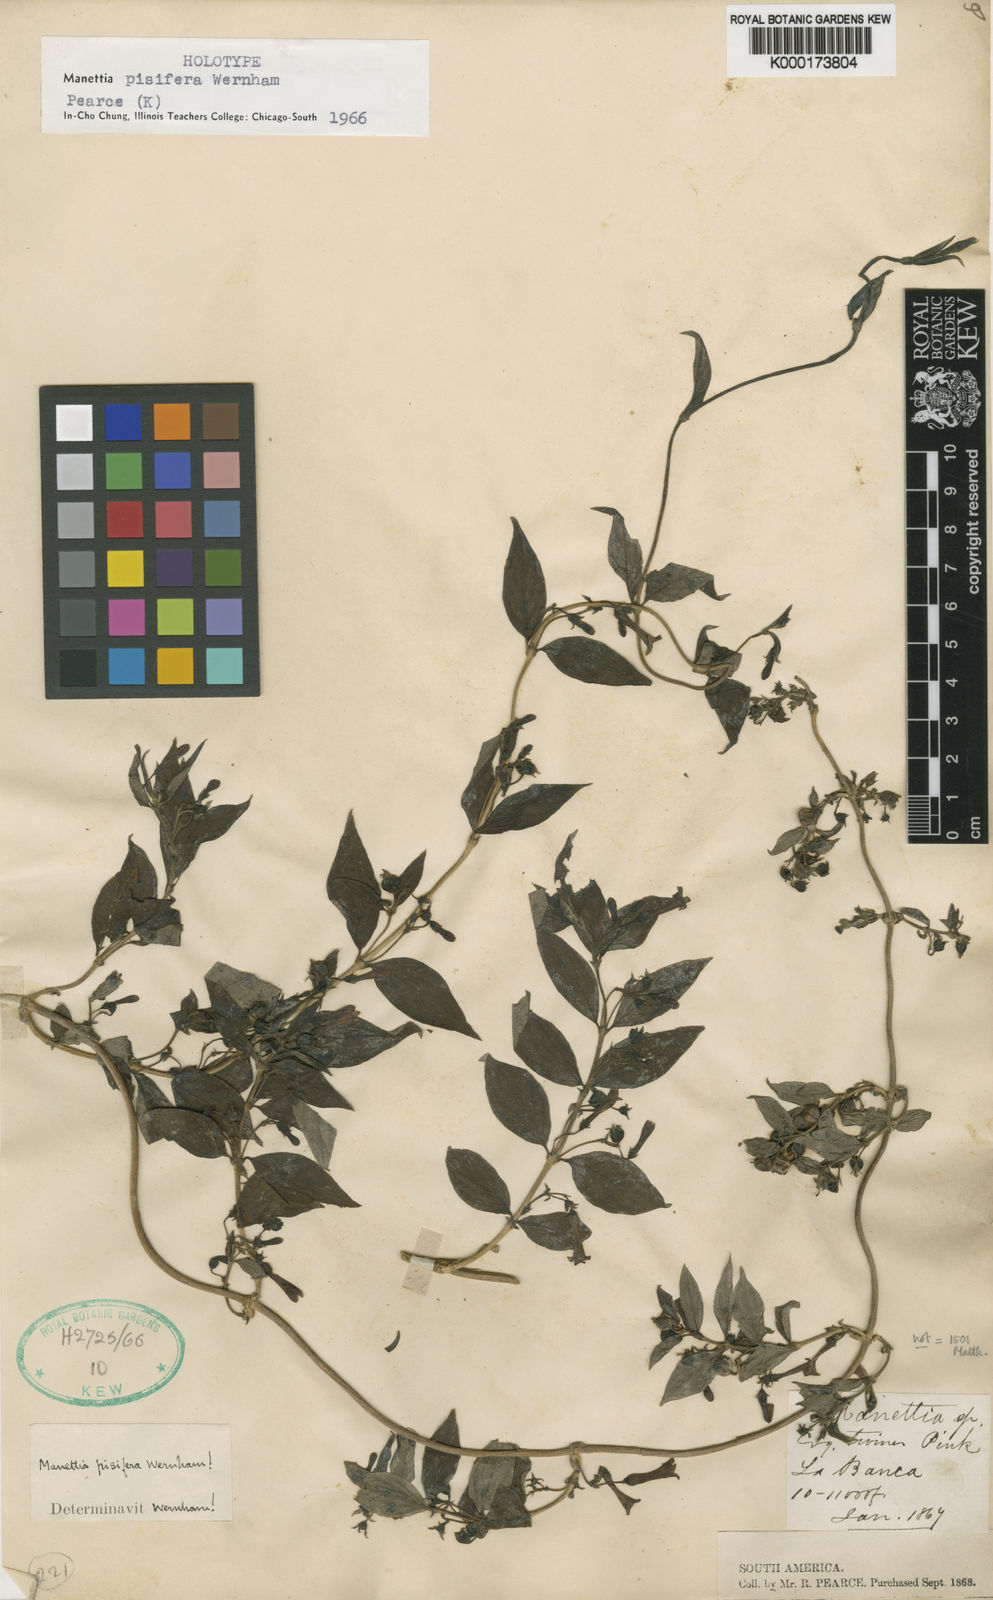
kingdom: Plantae
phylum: Tracheophyta
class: Magnoliopsida
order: Gentianales
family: Rubiaceae
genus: Manettia
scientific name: Manettia pisifera
